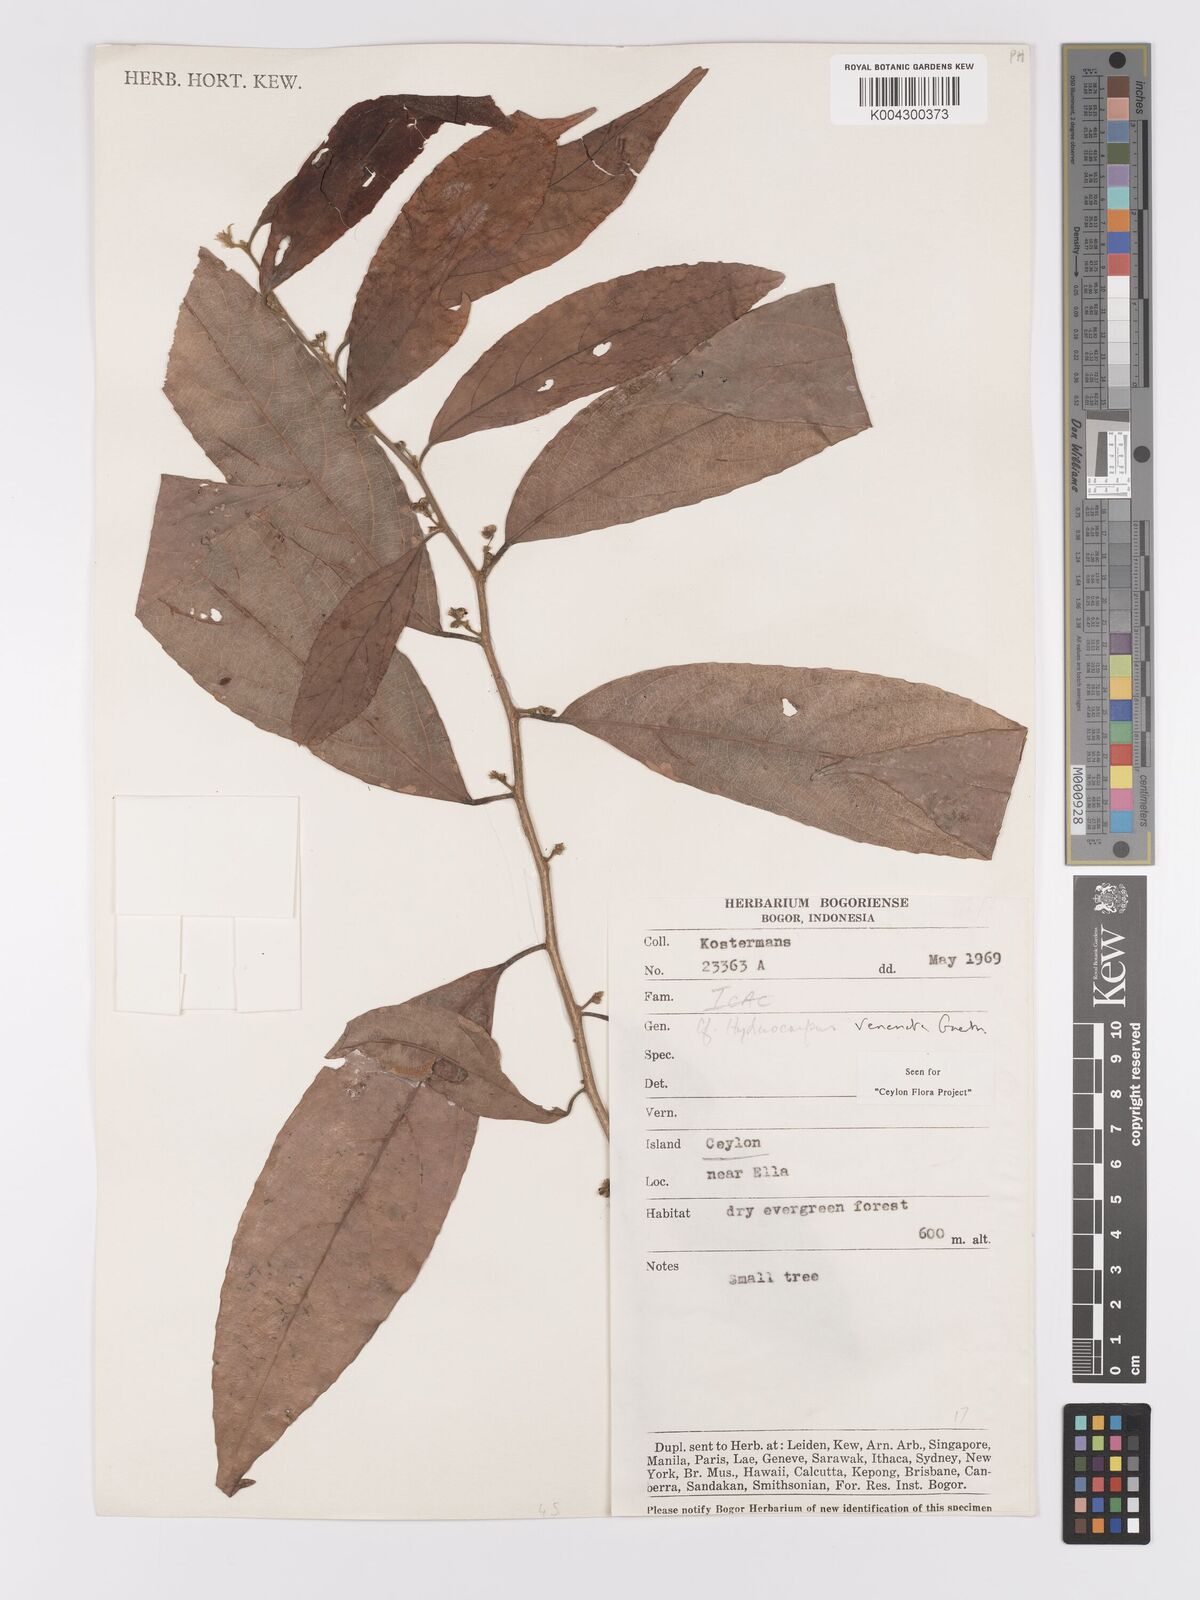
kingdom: Plantae
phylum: Tracheophyta
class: Magnoliopsida
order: Malpighiales
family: Achariaceae
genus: Hydnocarpus
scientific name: Hydnocarpus venenatus
